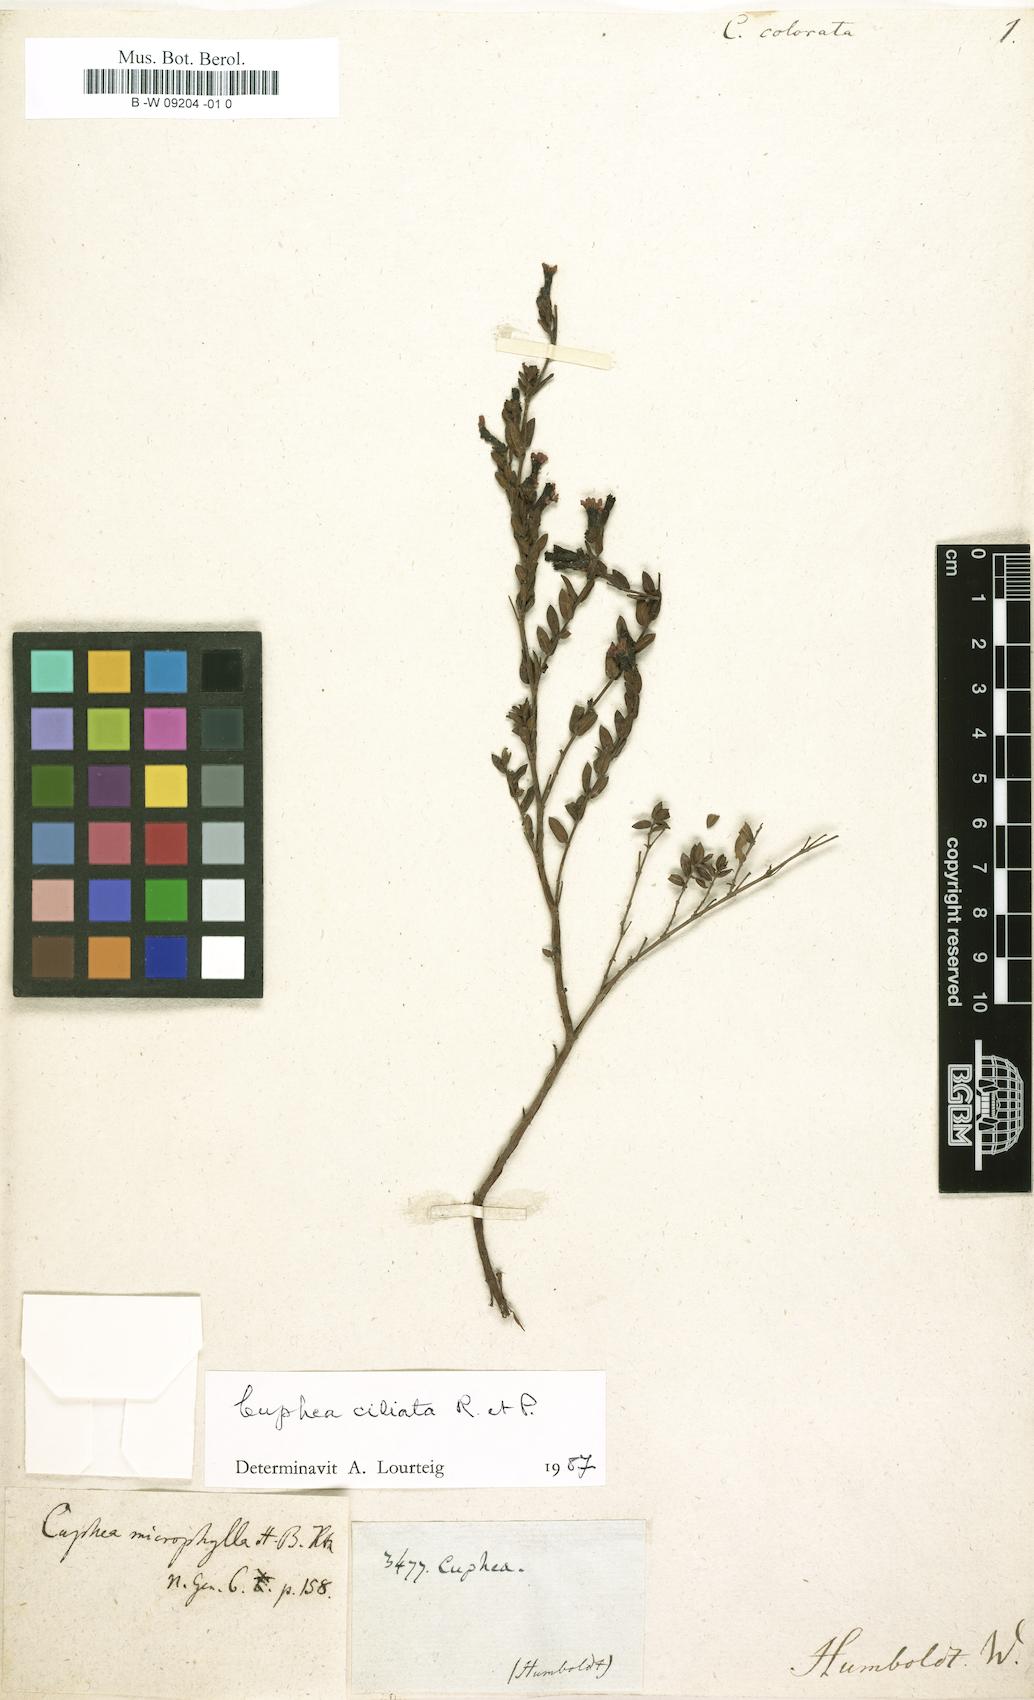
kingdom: Plantae
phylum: Tracheophyta
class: Magnoliopsida
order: Myrtales
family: Lythraceae
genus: Cuphea
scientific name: Cuphea
